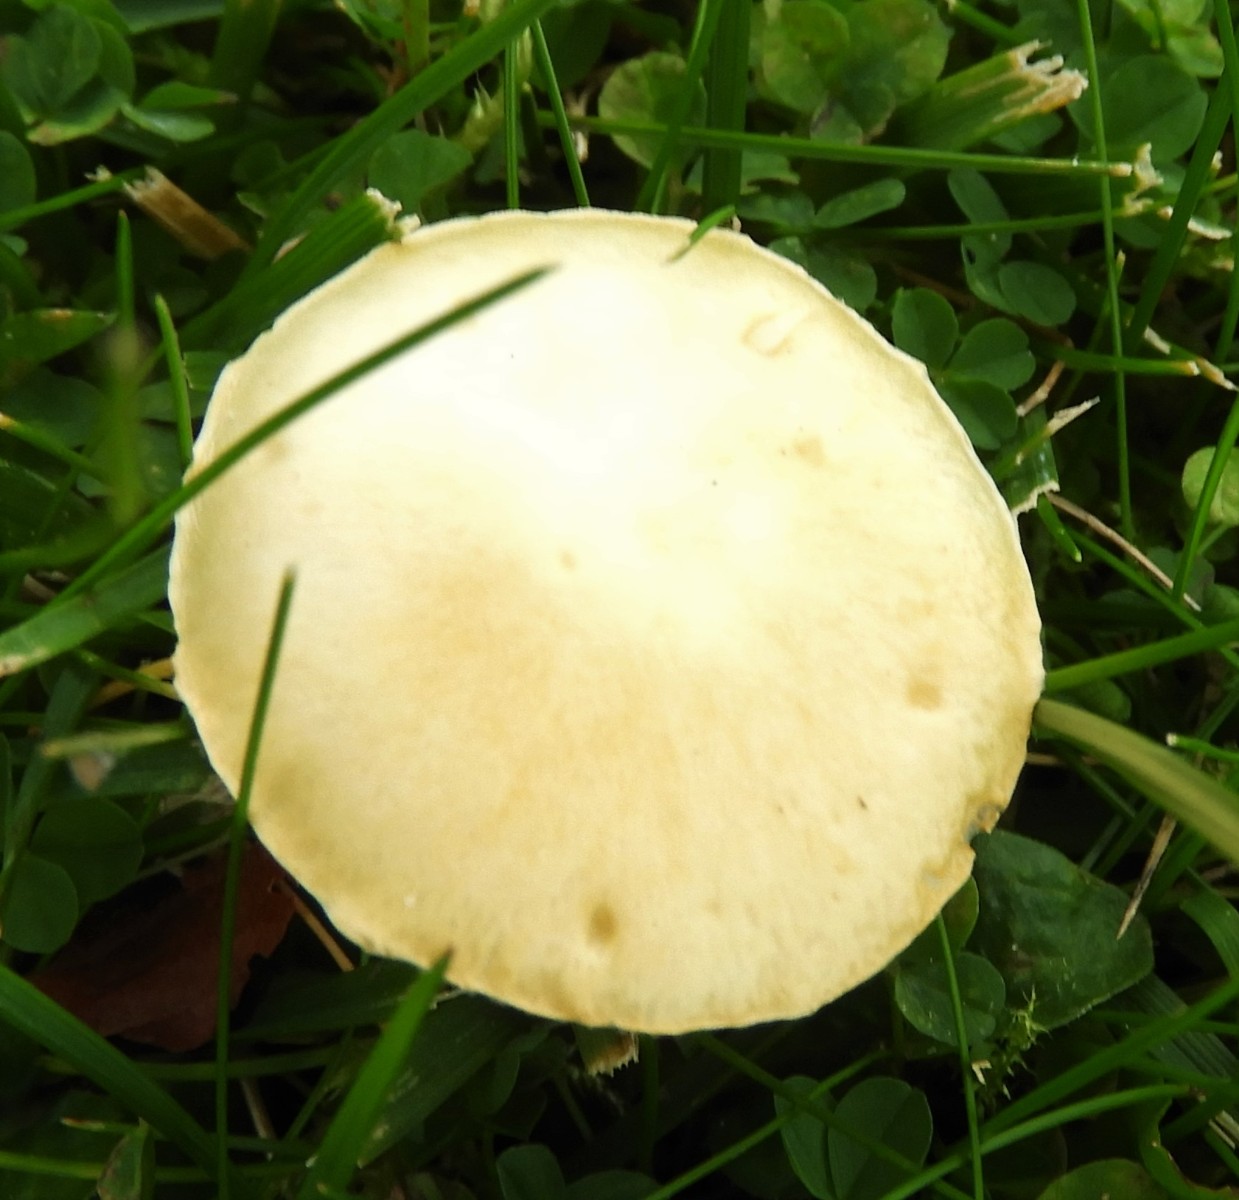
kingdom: Fungi
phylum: Basidiomycota
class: Agaricomycetes
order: Agaricales
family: Hymenogastraceae
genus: Psilocybe
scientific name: Psilocybe coronilla
